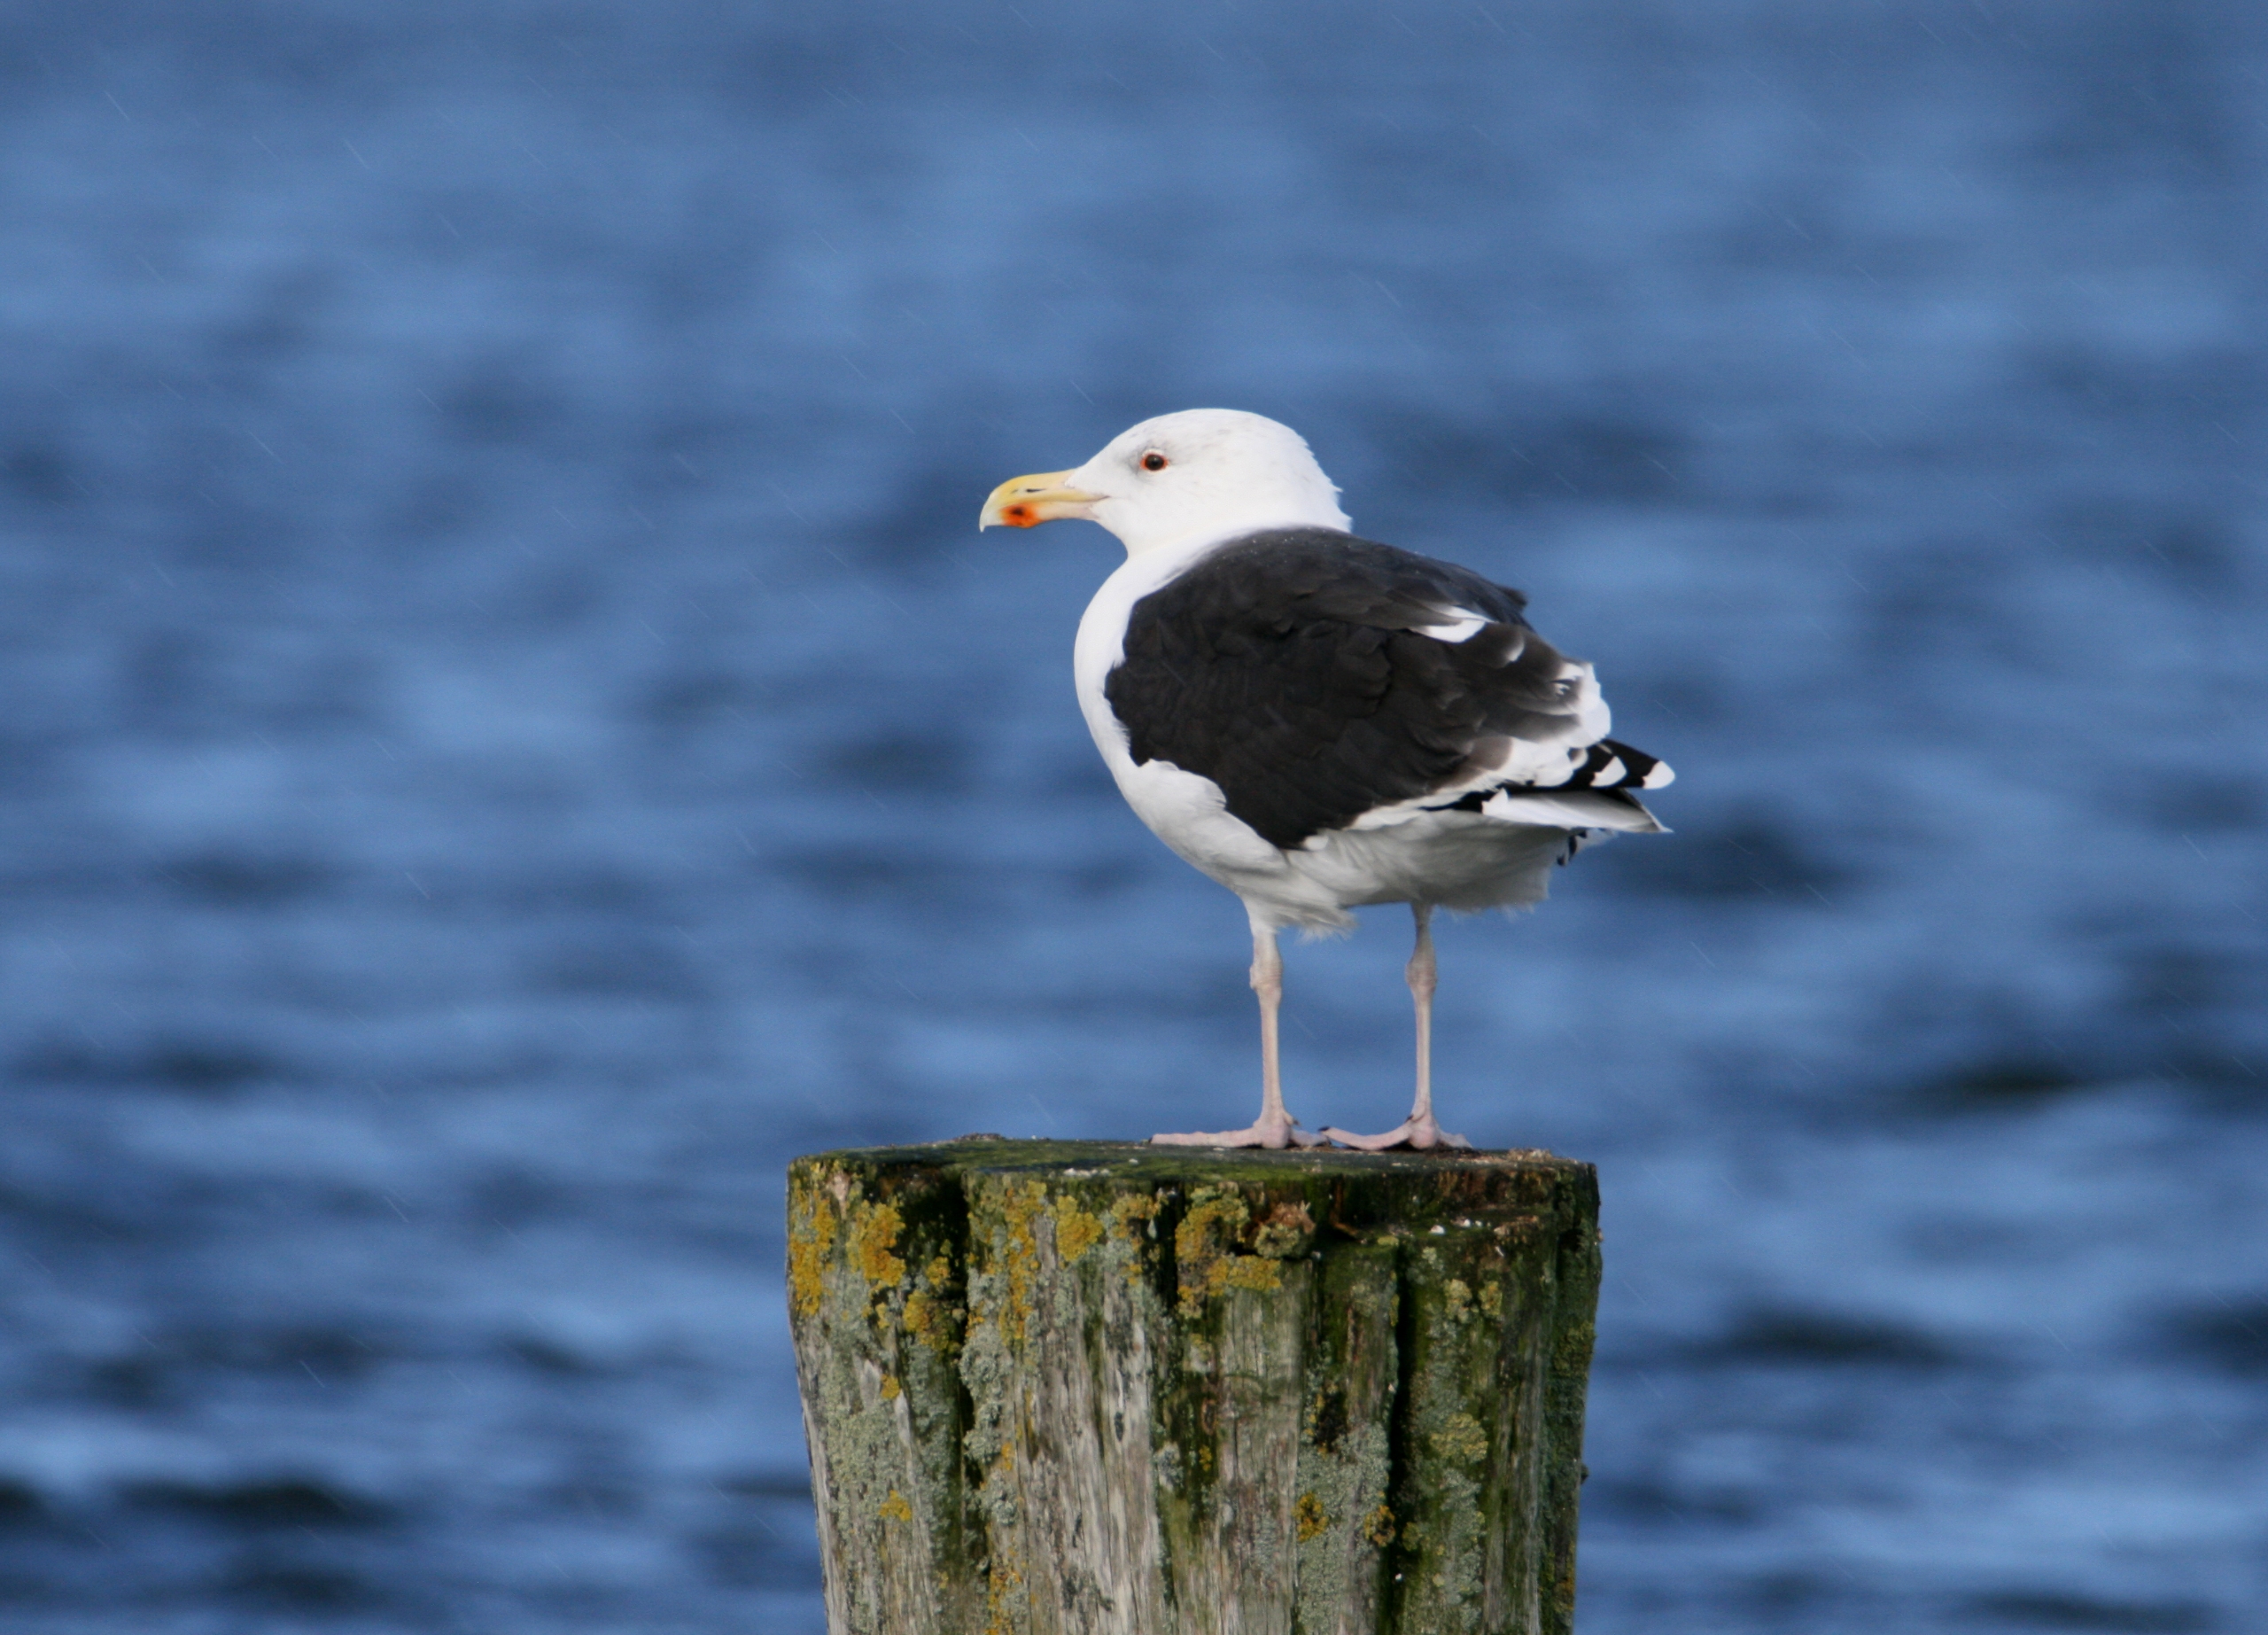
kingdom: Animalia
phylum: Chordata
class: Aves
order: Charadriiformes
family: Laridae
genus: Larus
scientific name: Larus marinus
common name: Svartbag
